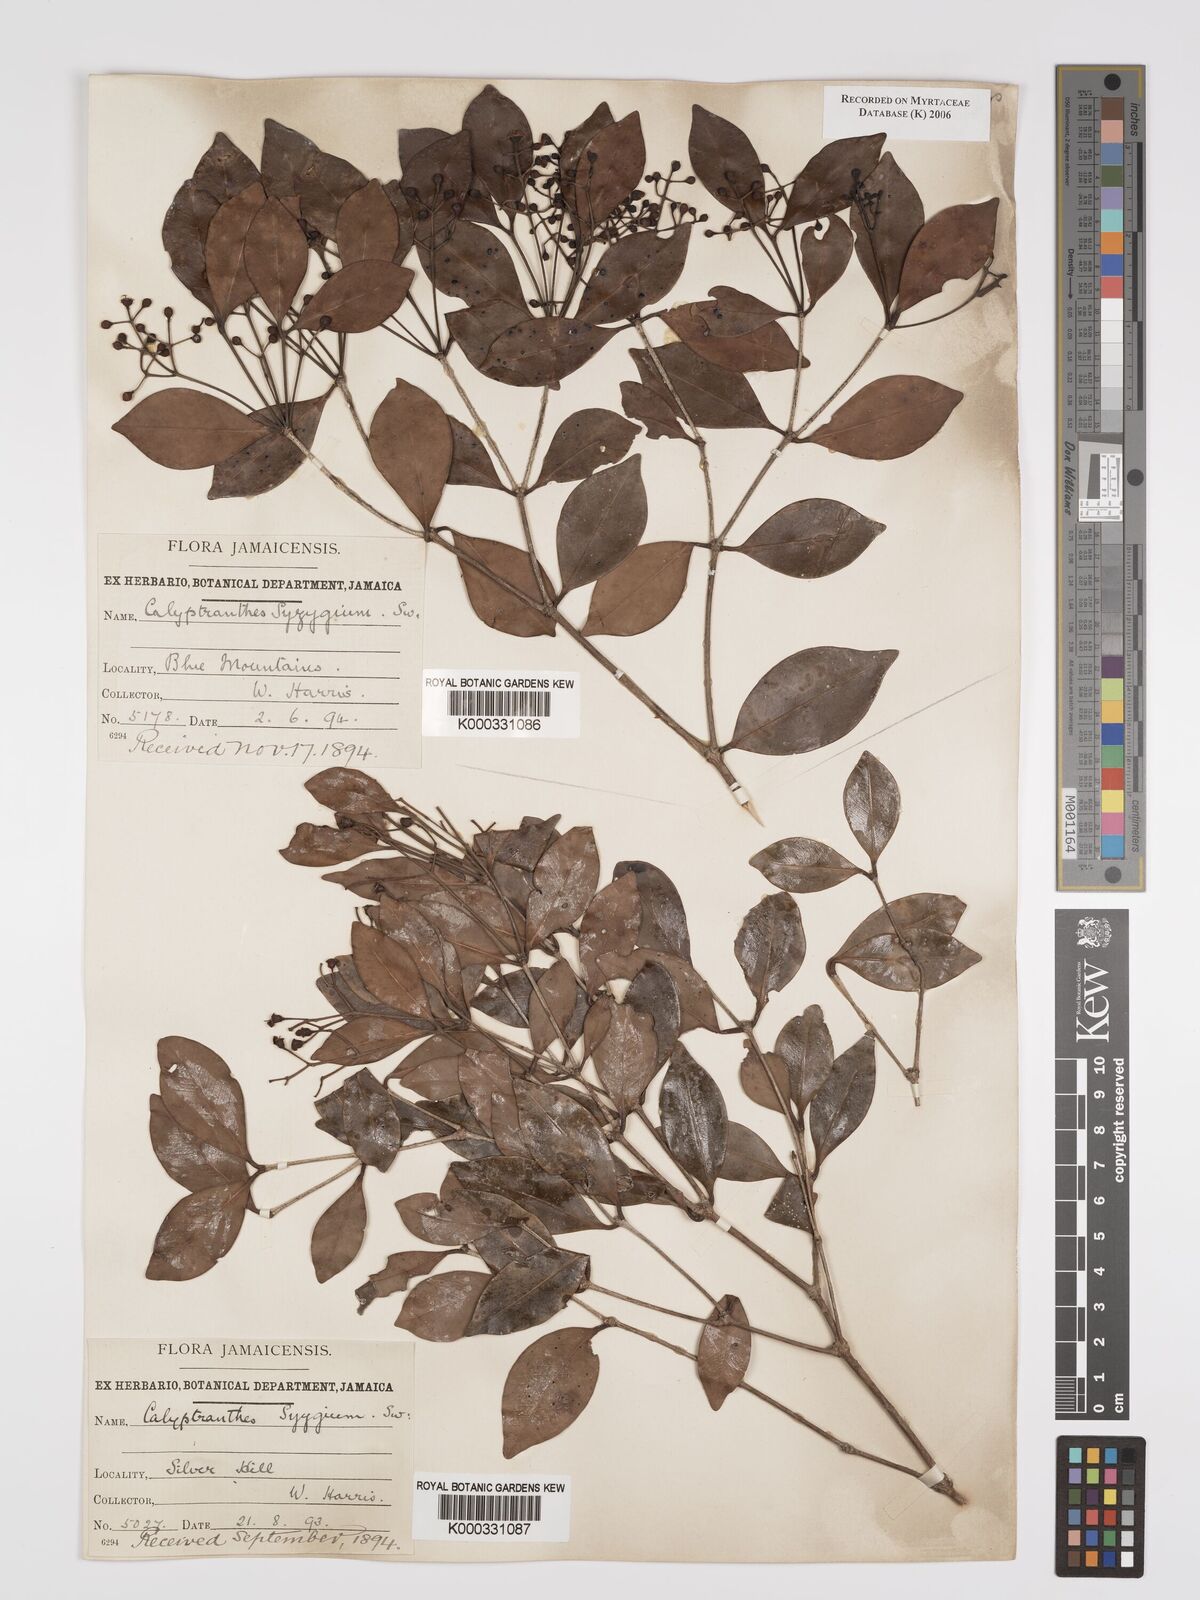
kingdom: Plantae
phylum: Tracheophyta
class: Magnoliopsida
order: Myrtales
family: Myrtaceae
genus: Myrcia
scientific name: Myrcia chytraculia
